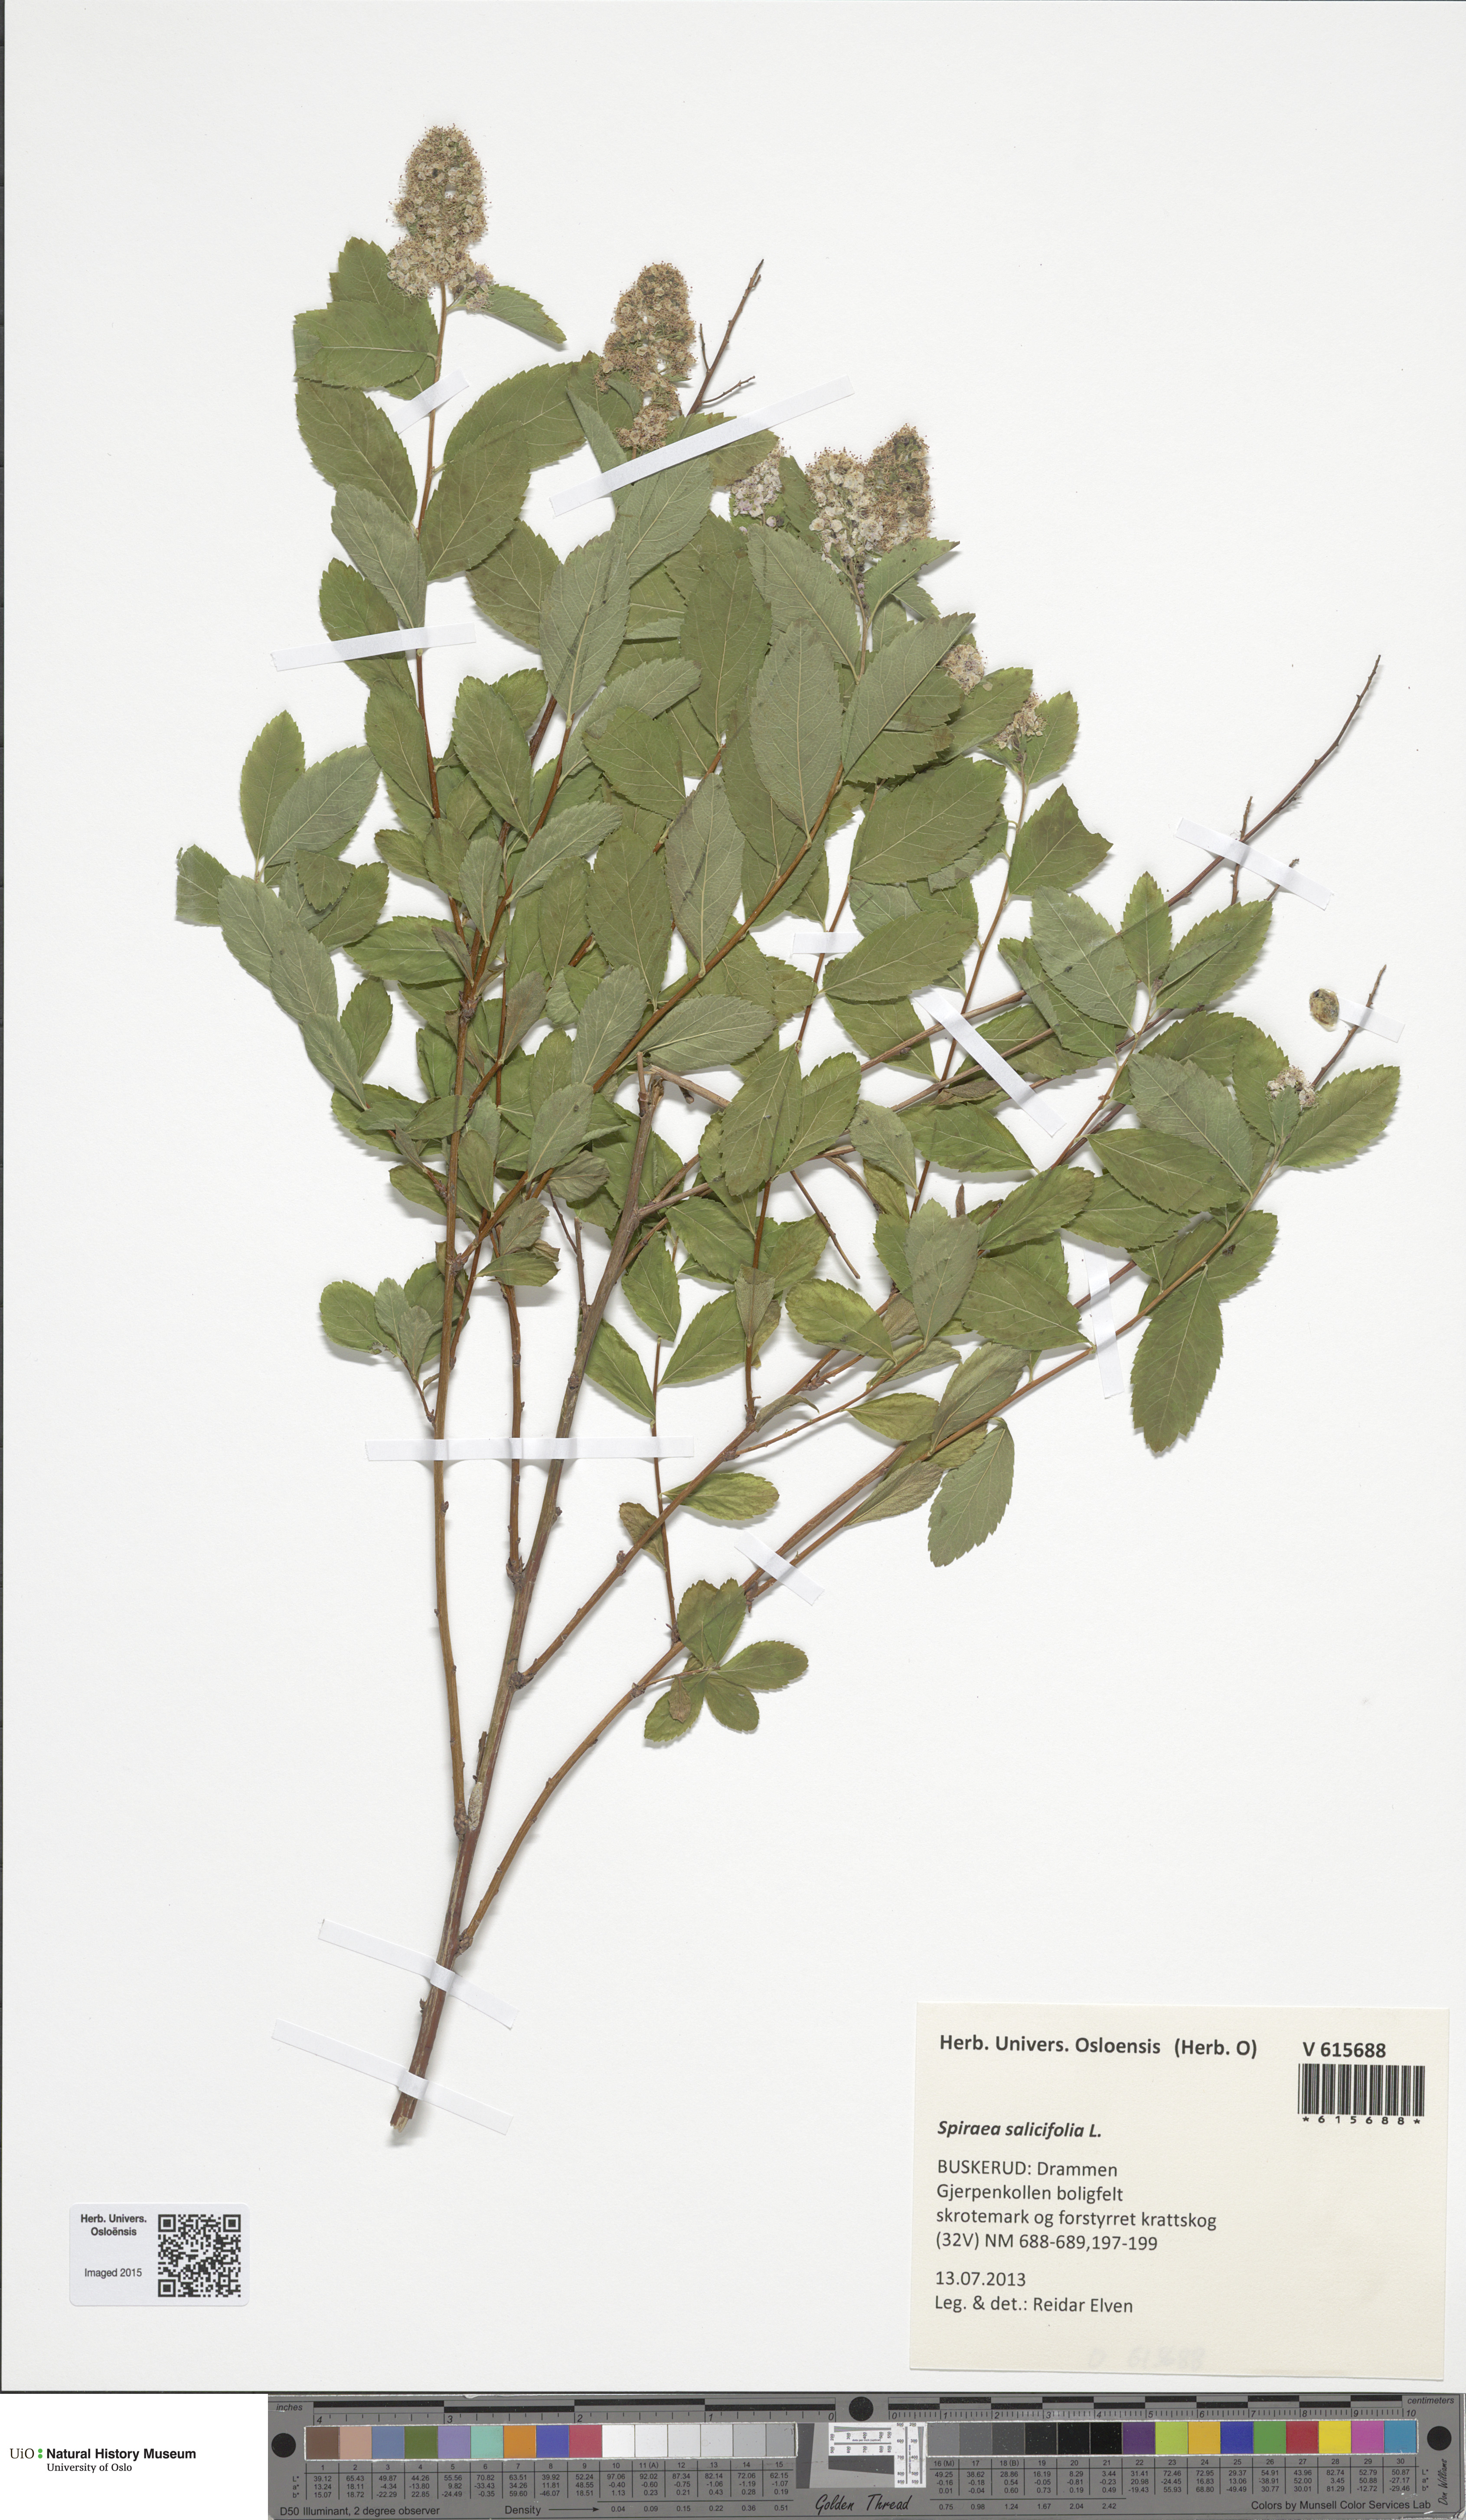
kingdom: Plantae
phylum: Tracheophyta
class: Magnoliopsida
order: Rosales
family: Rosaceae
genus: Spiraea
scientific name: Spiraea salicifolia
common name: Bridewort
